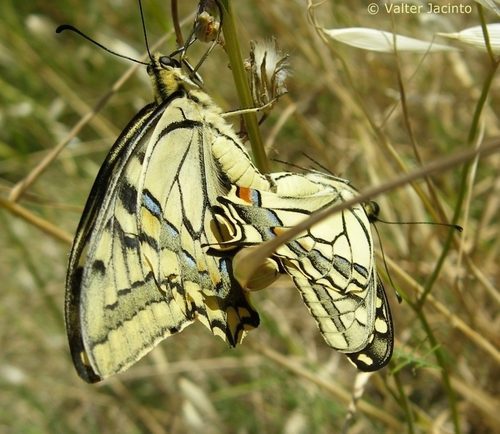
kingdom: Animalia
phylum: Arthropoda
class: Insecta
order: Lepidoptera
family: Papilionidae
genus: Papilio
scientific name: Papilio machaon
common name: Swallowtail
